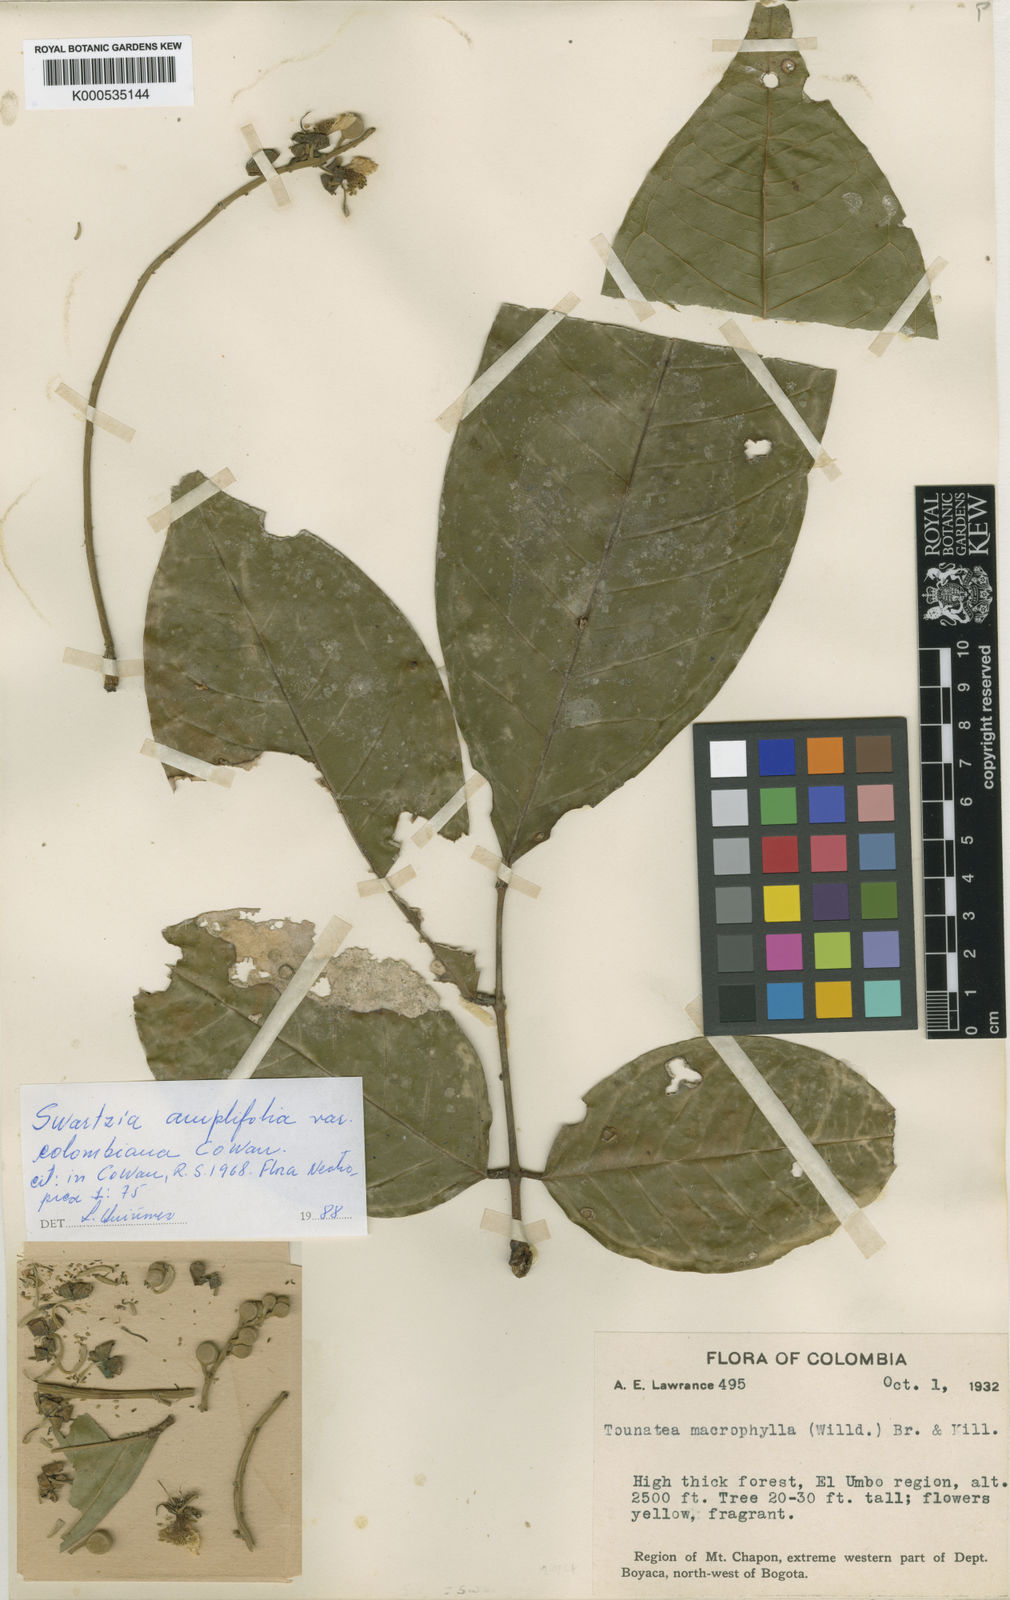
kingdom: Plantae
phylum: Tracheophyta
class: Magnoliopsida
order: Fabales
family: Fabaceae
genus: Swartzia
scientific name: Swartzia amplifolia
